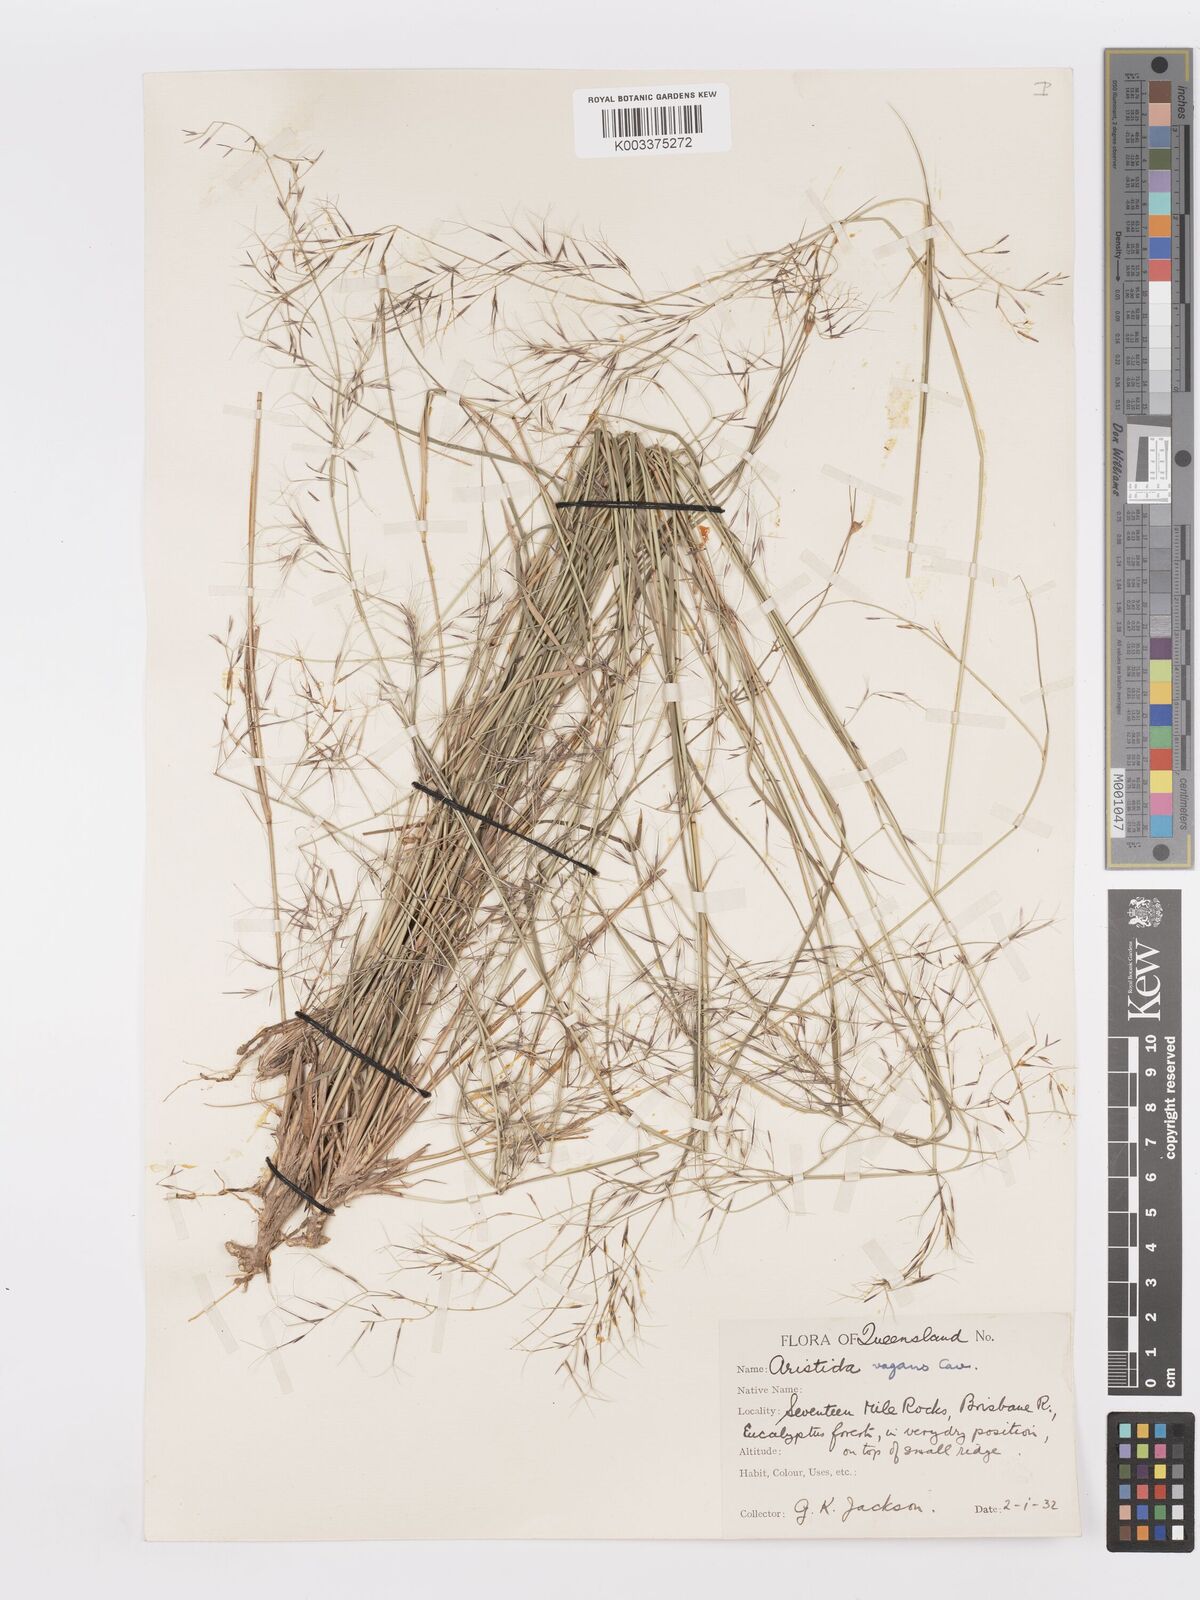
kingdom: Plantae
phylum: Tracheophyta
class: Liliopsida
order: Poales
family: Poaceae
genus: Aristida
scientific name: Aristida vagans
